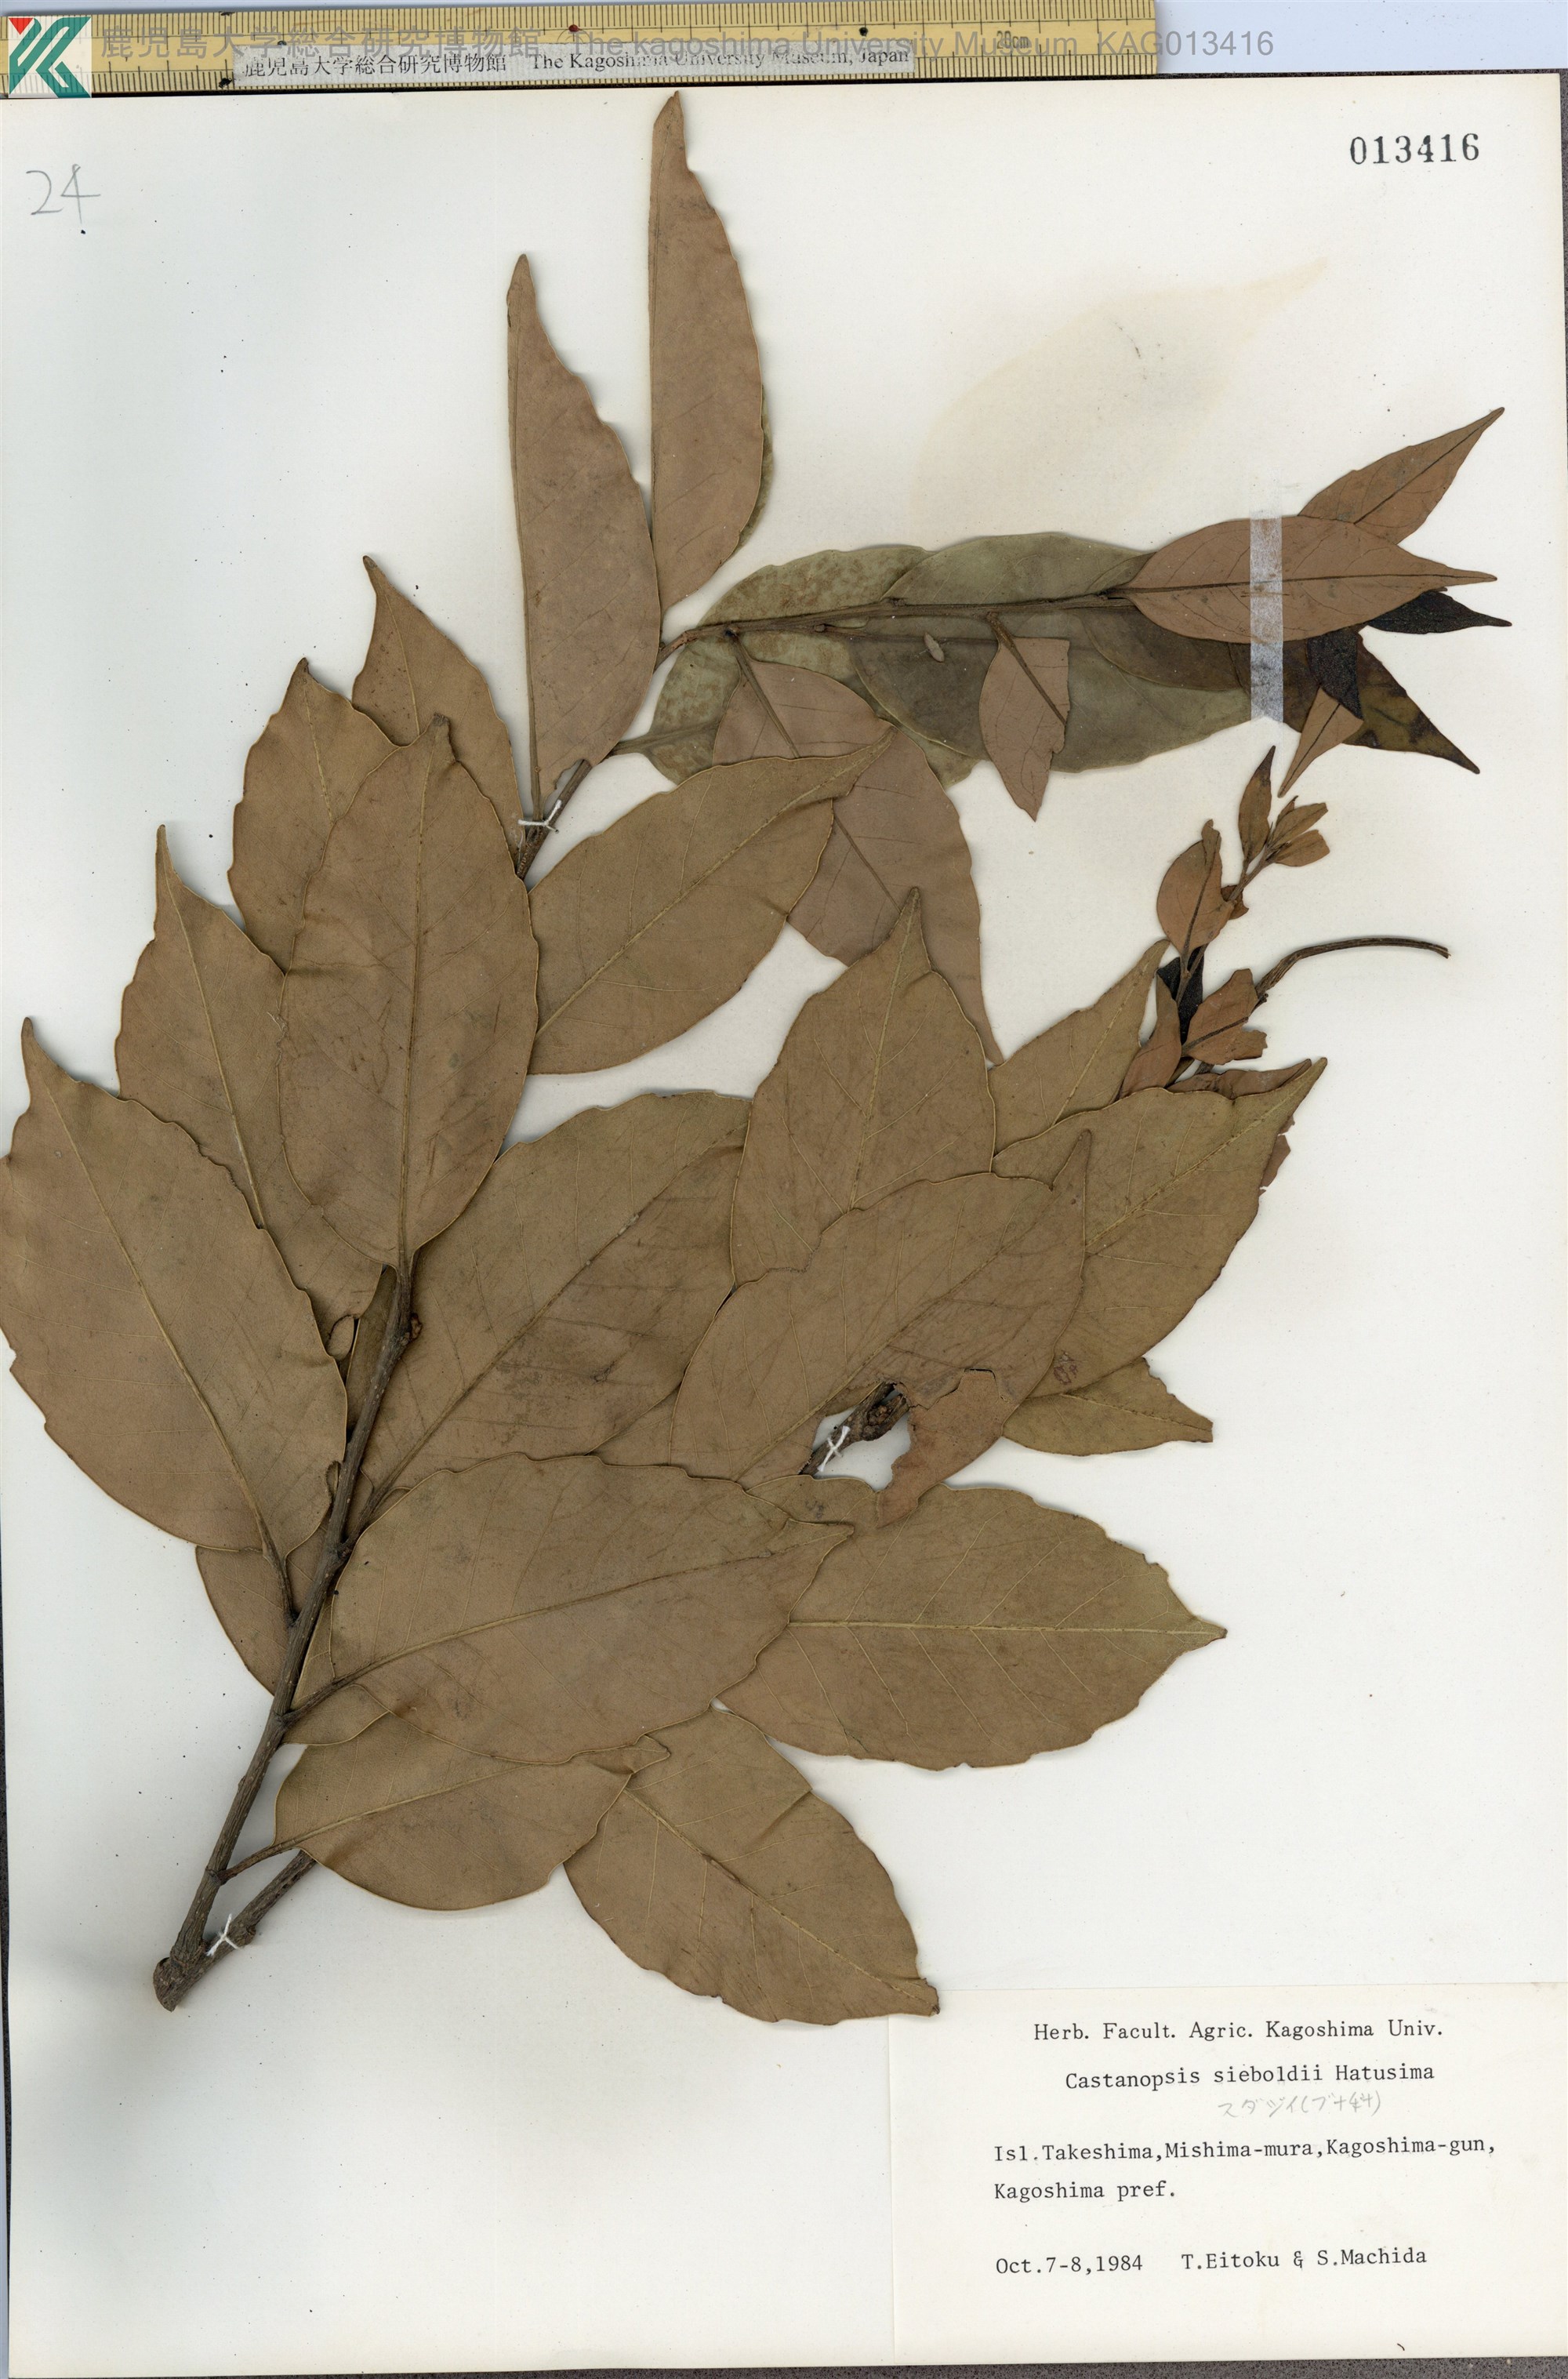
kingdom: Plantae
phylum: Tracheophyta
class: Magnoliopsida
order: Fagales
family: Fagaceae
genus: Castanopsis
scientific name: Castanopsis sieboldii
